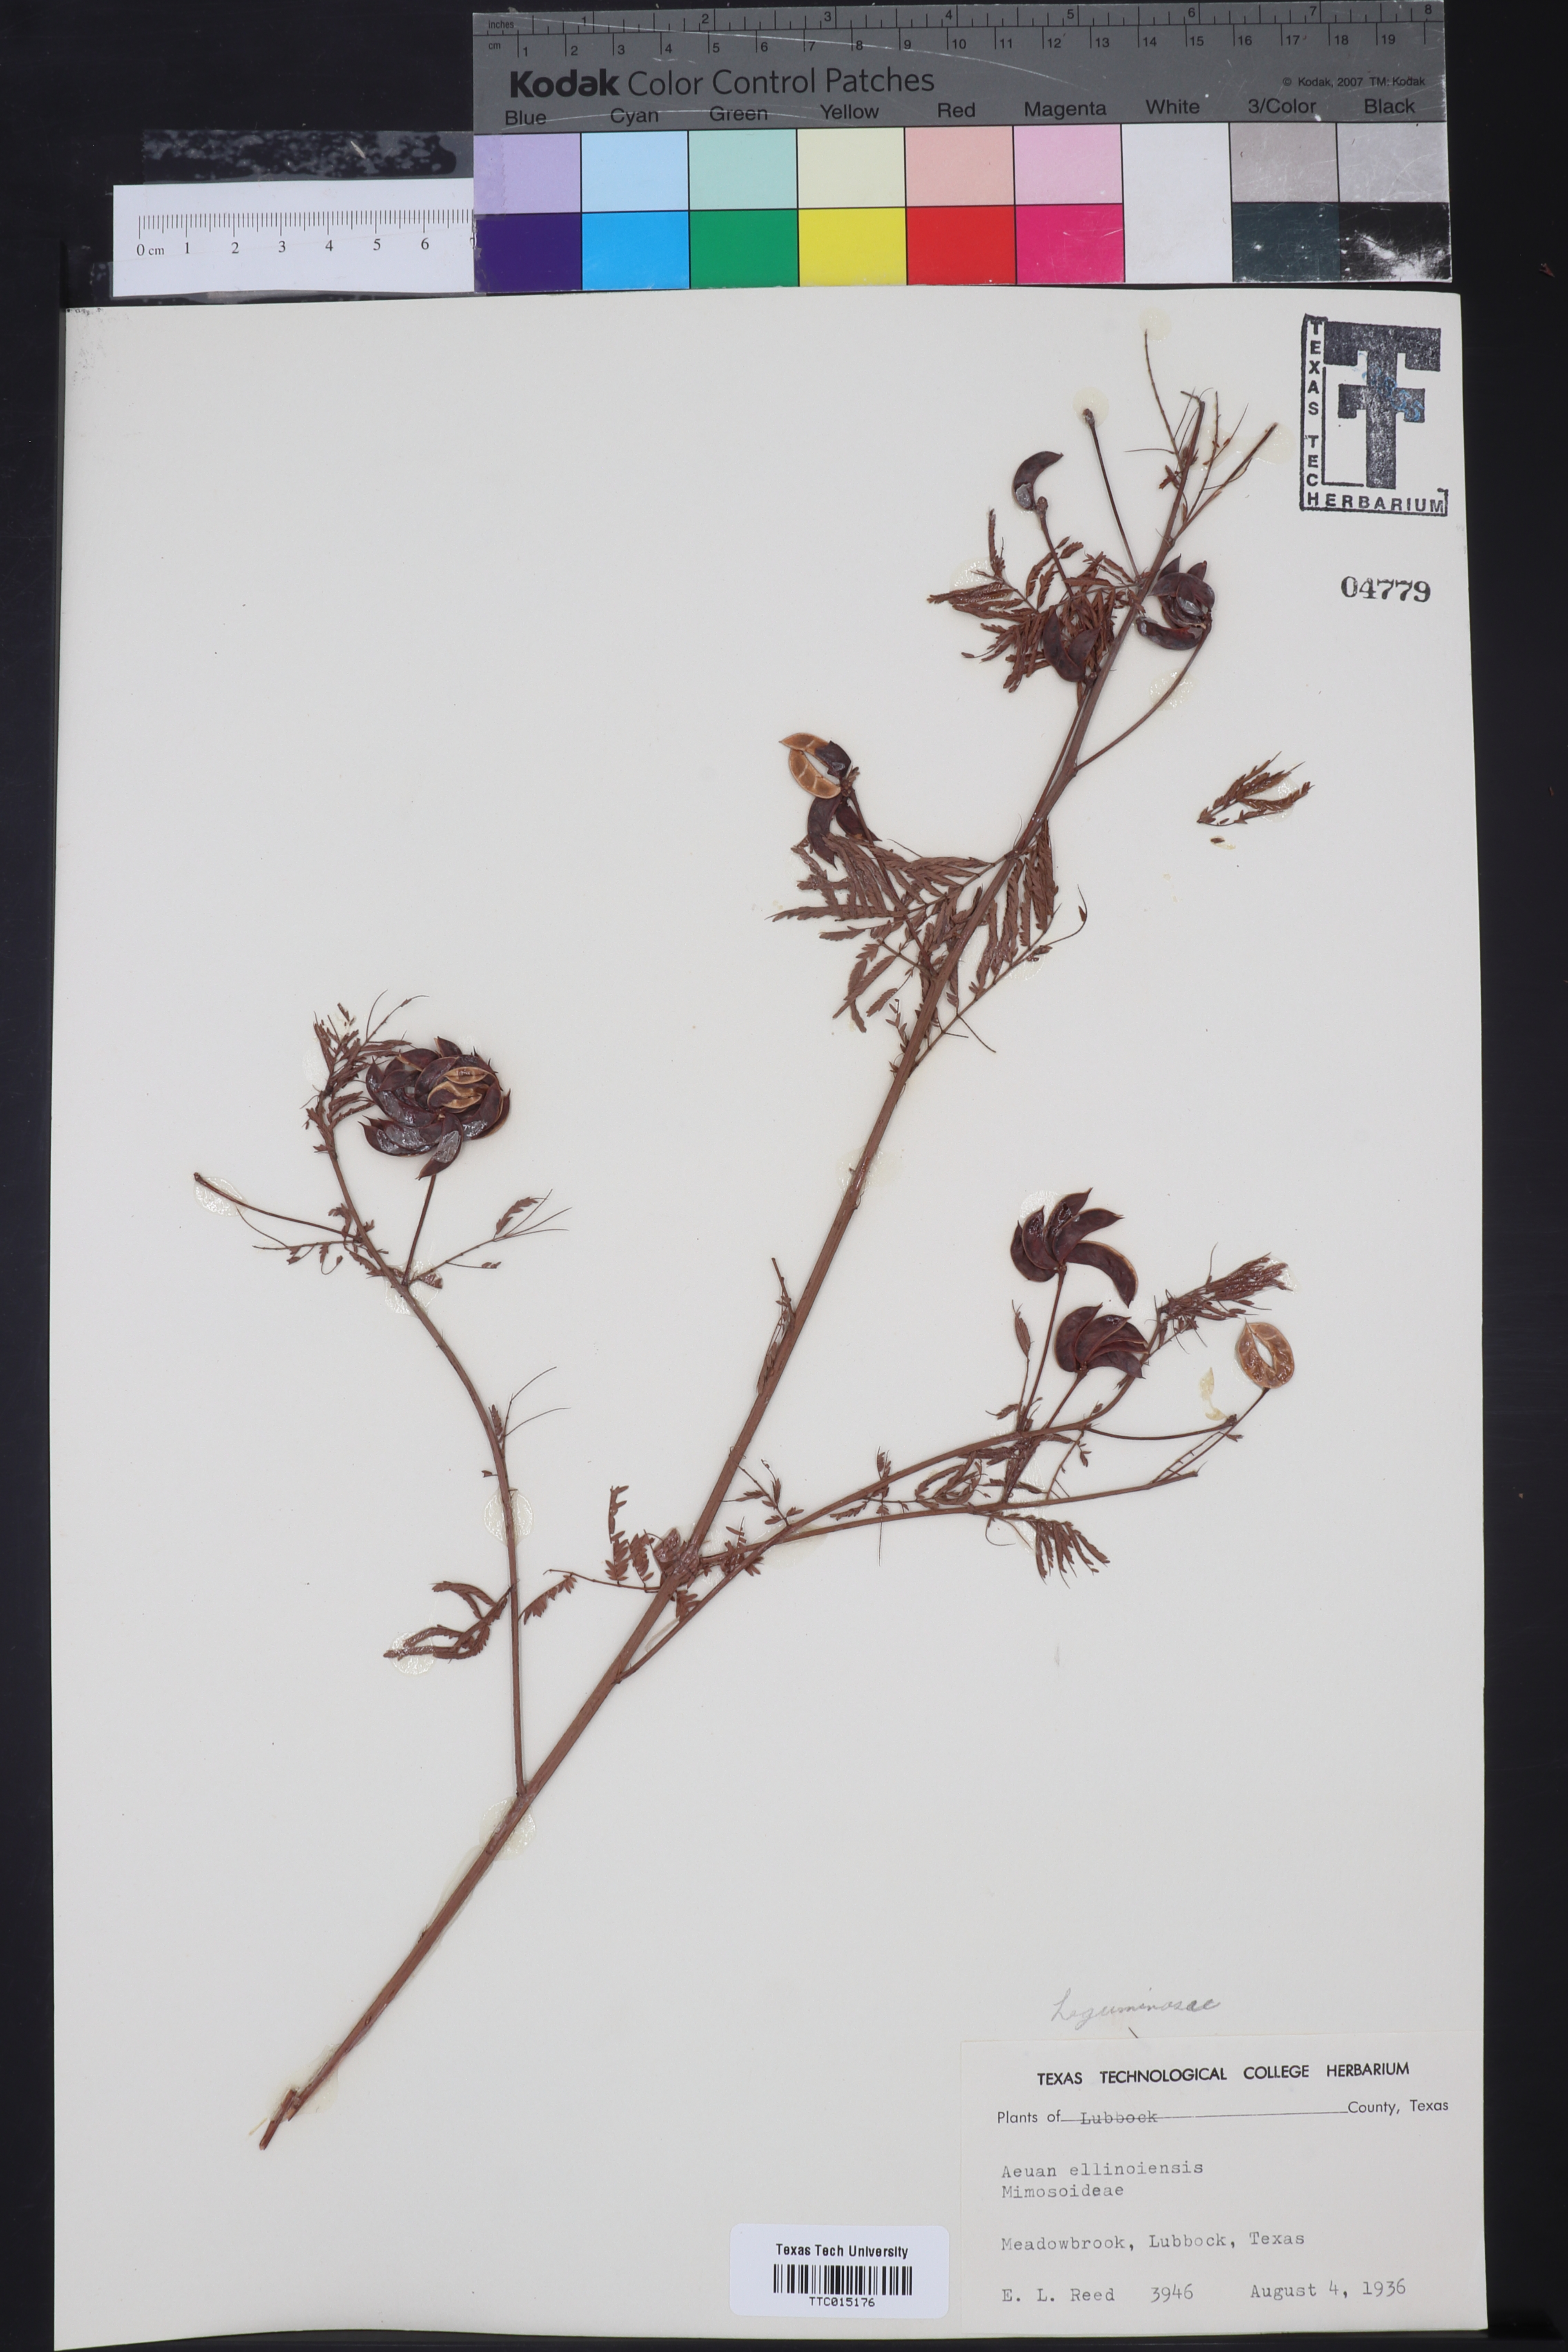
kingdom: Plantae
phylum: Tracheophyta
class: Magnoliopsida
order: Fabales
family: Fabaceae
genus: Desmanthus
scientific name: Desmanthus illinoensis
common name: Illinois bundle-flower
